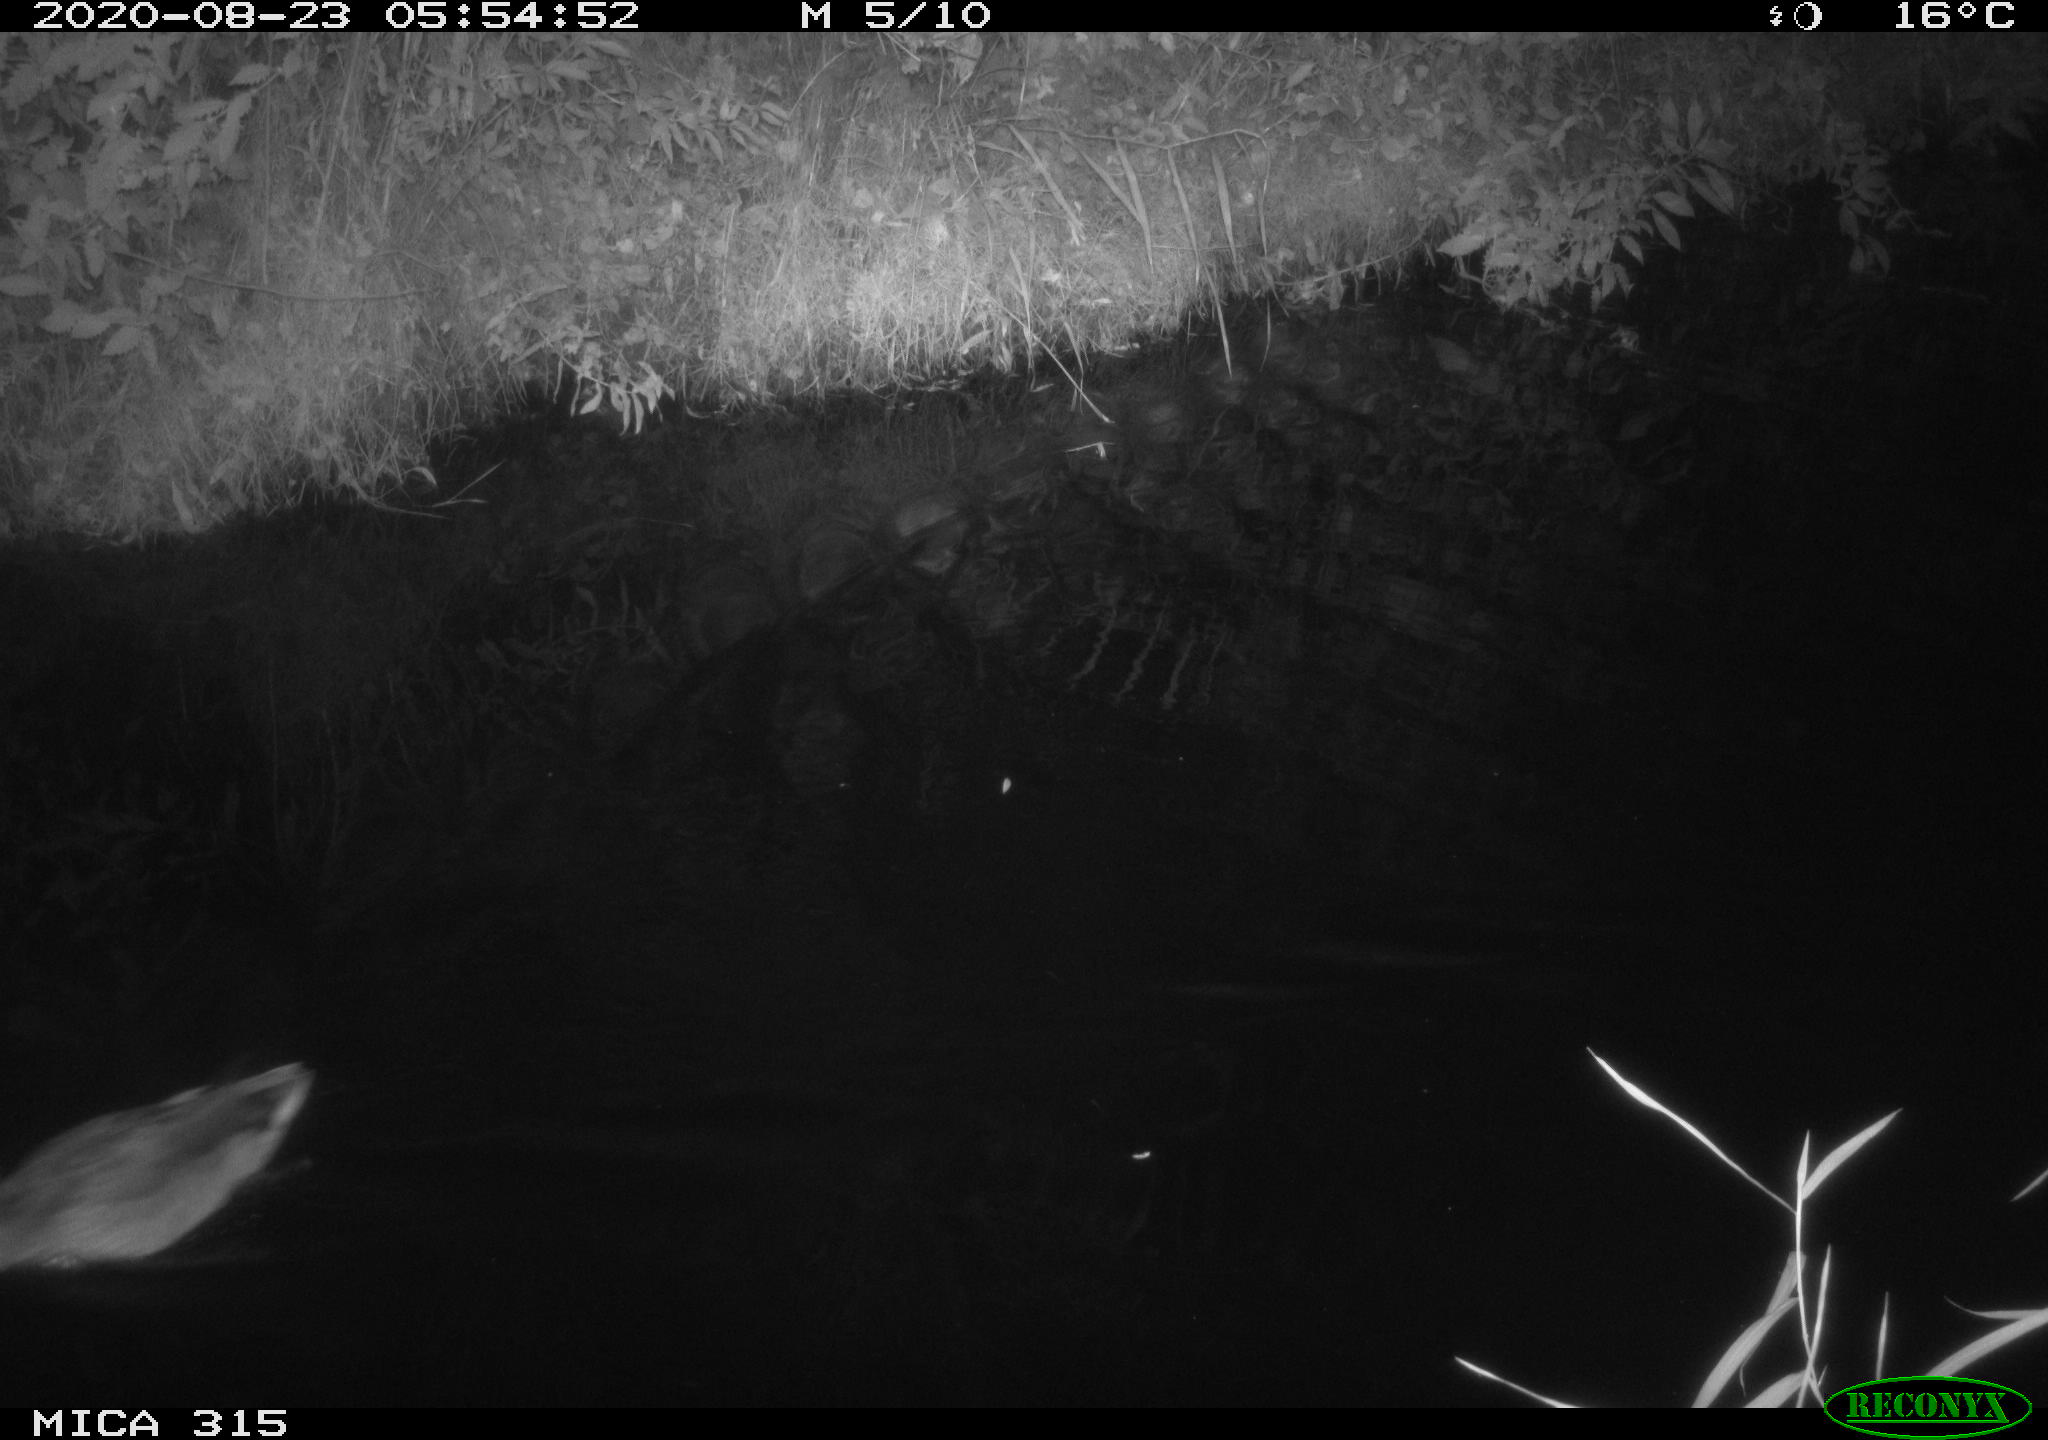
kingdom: Animalia
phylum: Chordata
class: Aves
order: Anseriformes
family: Anatidae
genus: Anas
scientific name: Anas platyrhynchos
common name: Mallard
